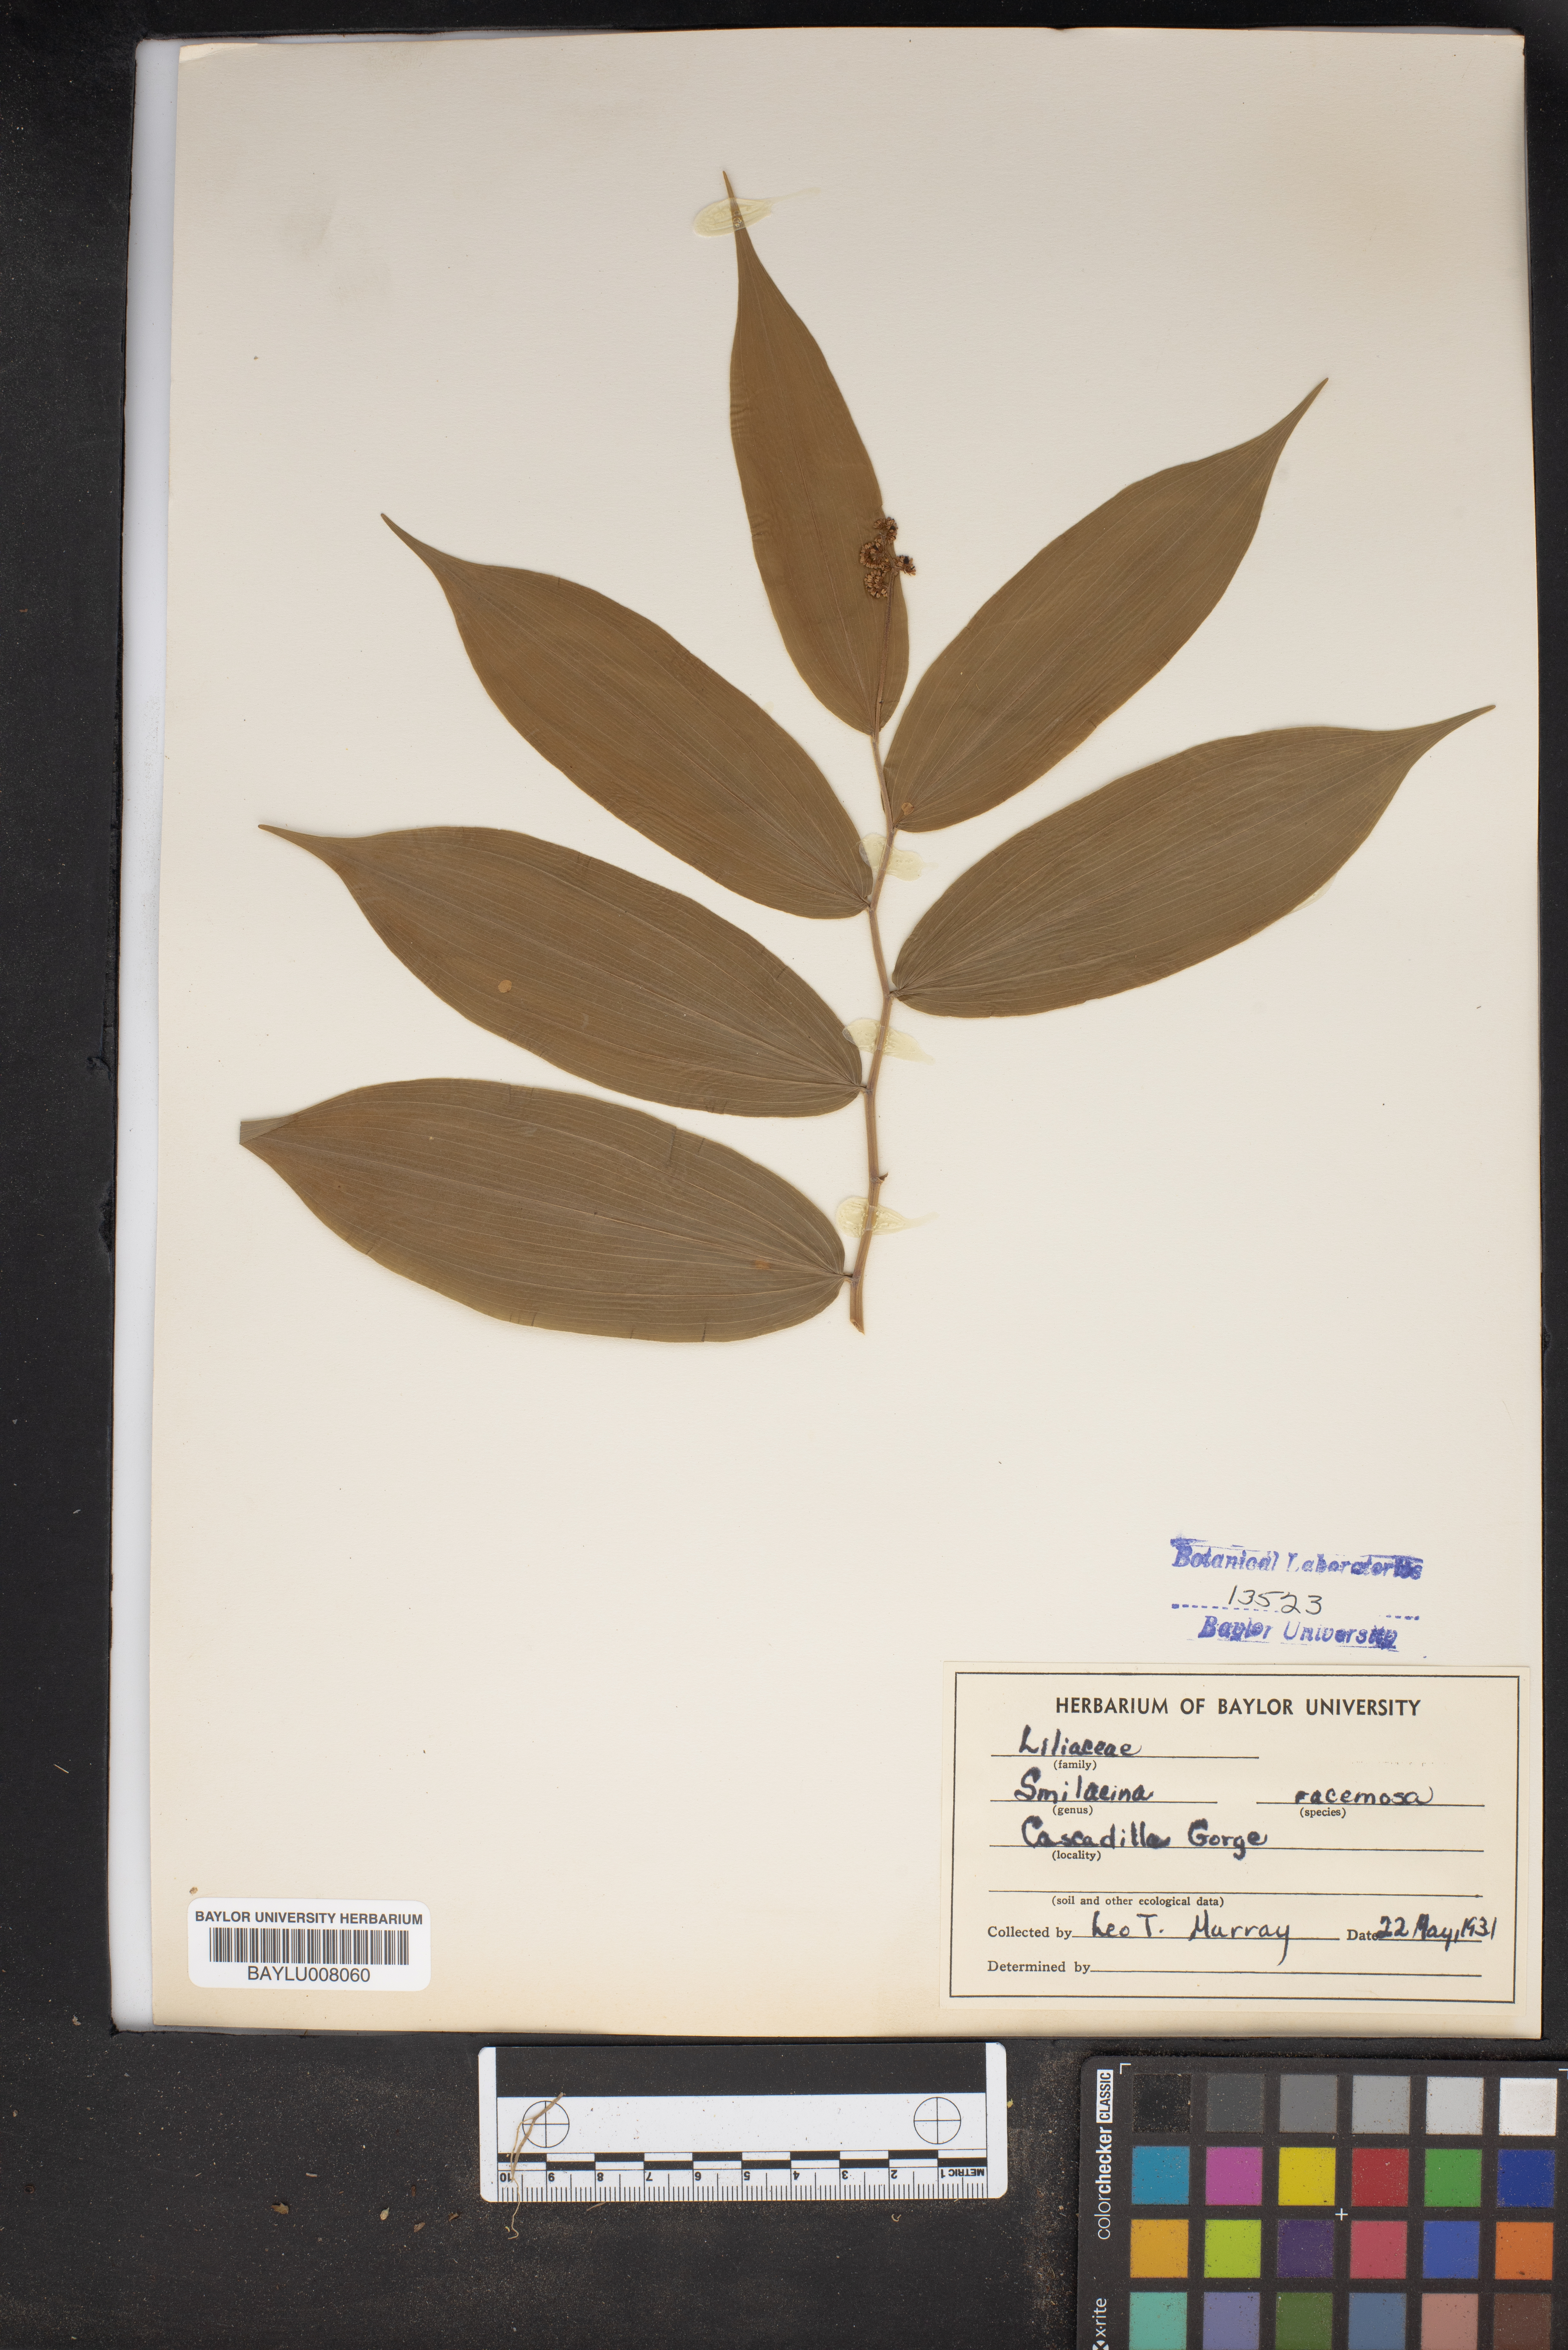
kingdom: Plantae
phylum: Tracheophyta
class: Liliopsida
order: Asparagales
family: Asparagaceae
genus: Maianthemum
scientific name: Maianthemum racemosum
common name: False spikenard
